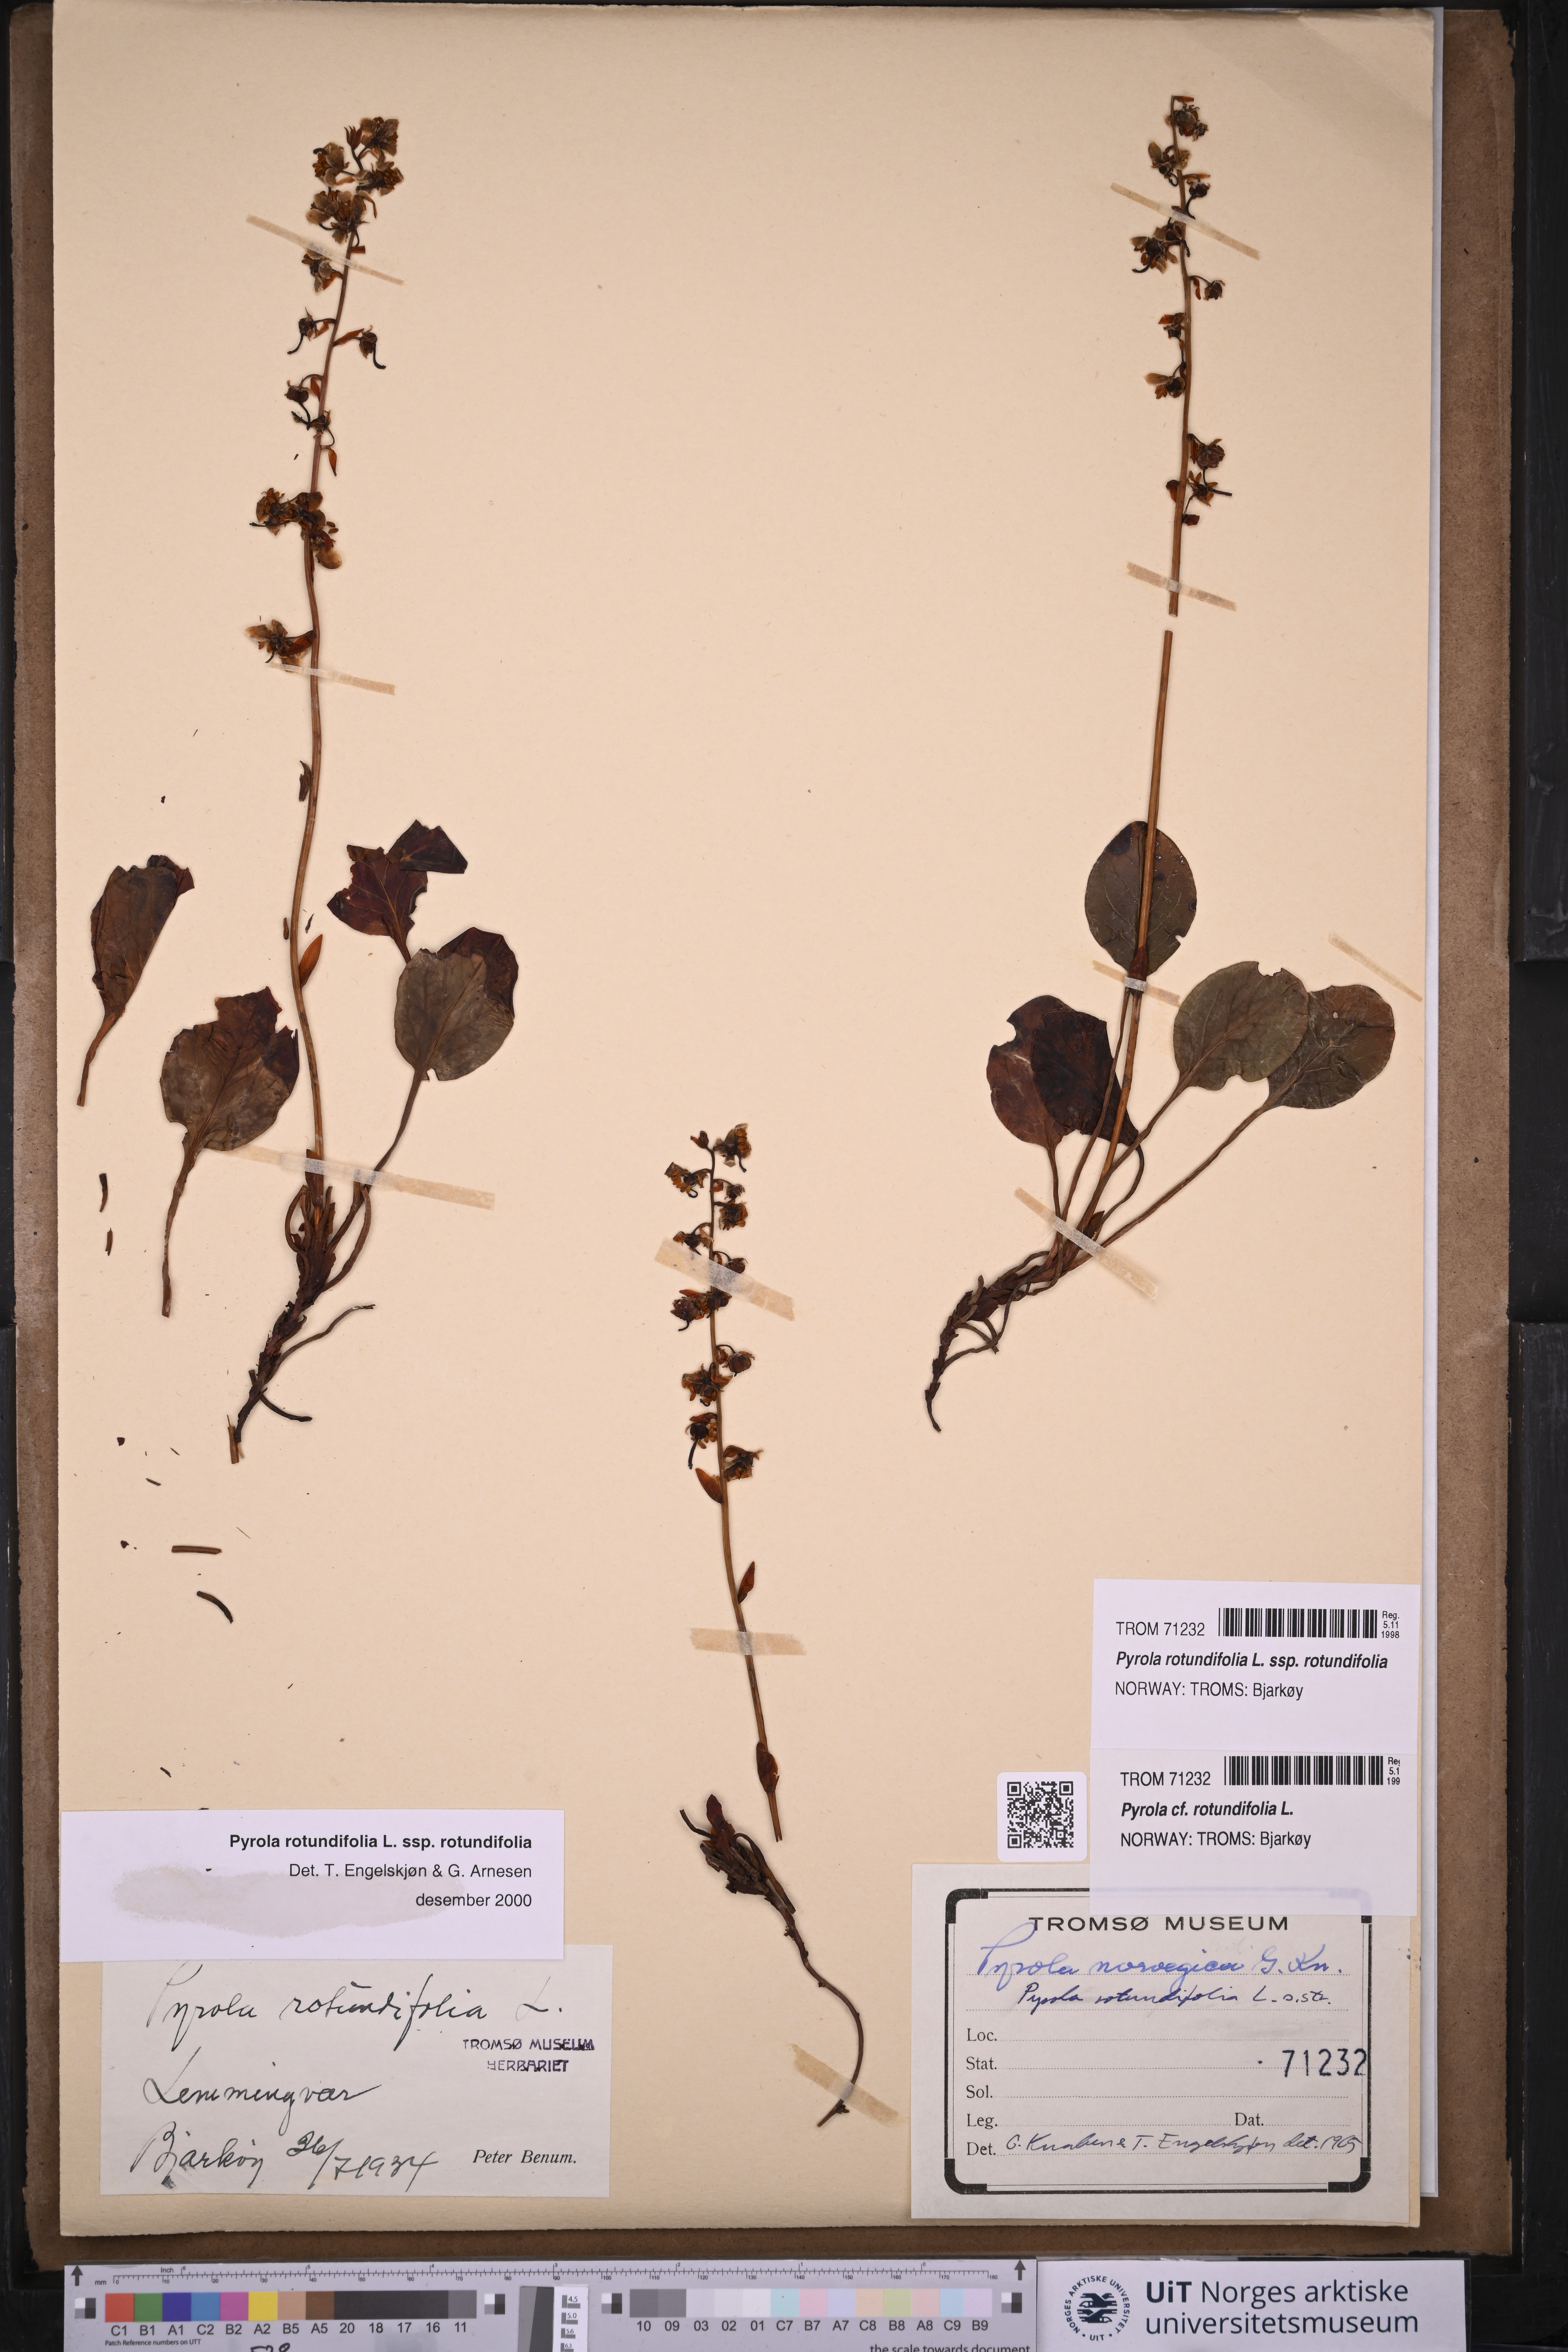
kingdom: Plantae
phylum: Tracheophyta
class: Magnoliopsida
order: Ericales
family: Ericaceae
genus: Pyrola
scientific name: Pyrola rotundifolia
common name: Round-leaved wintergreen
